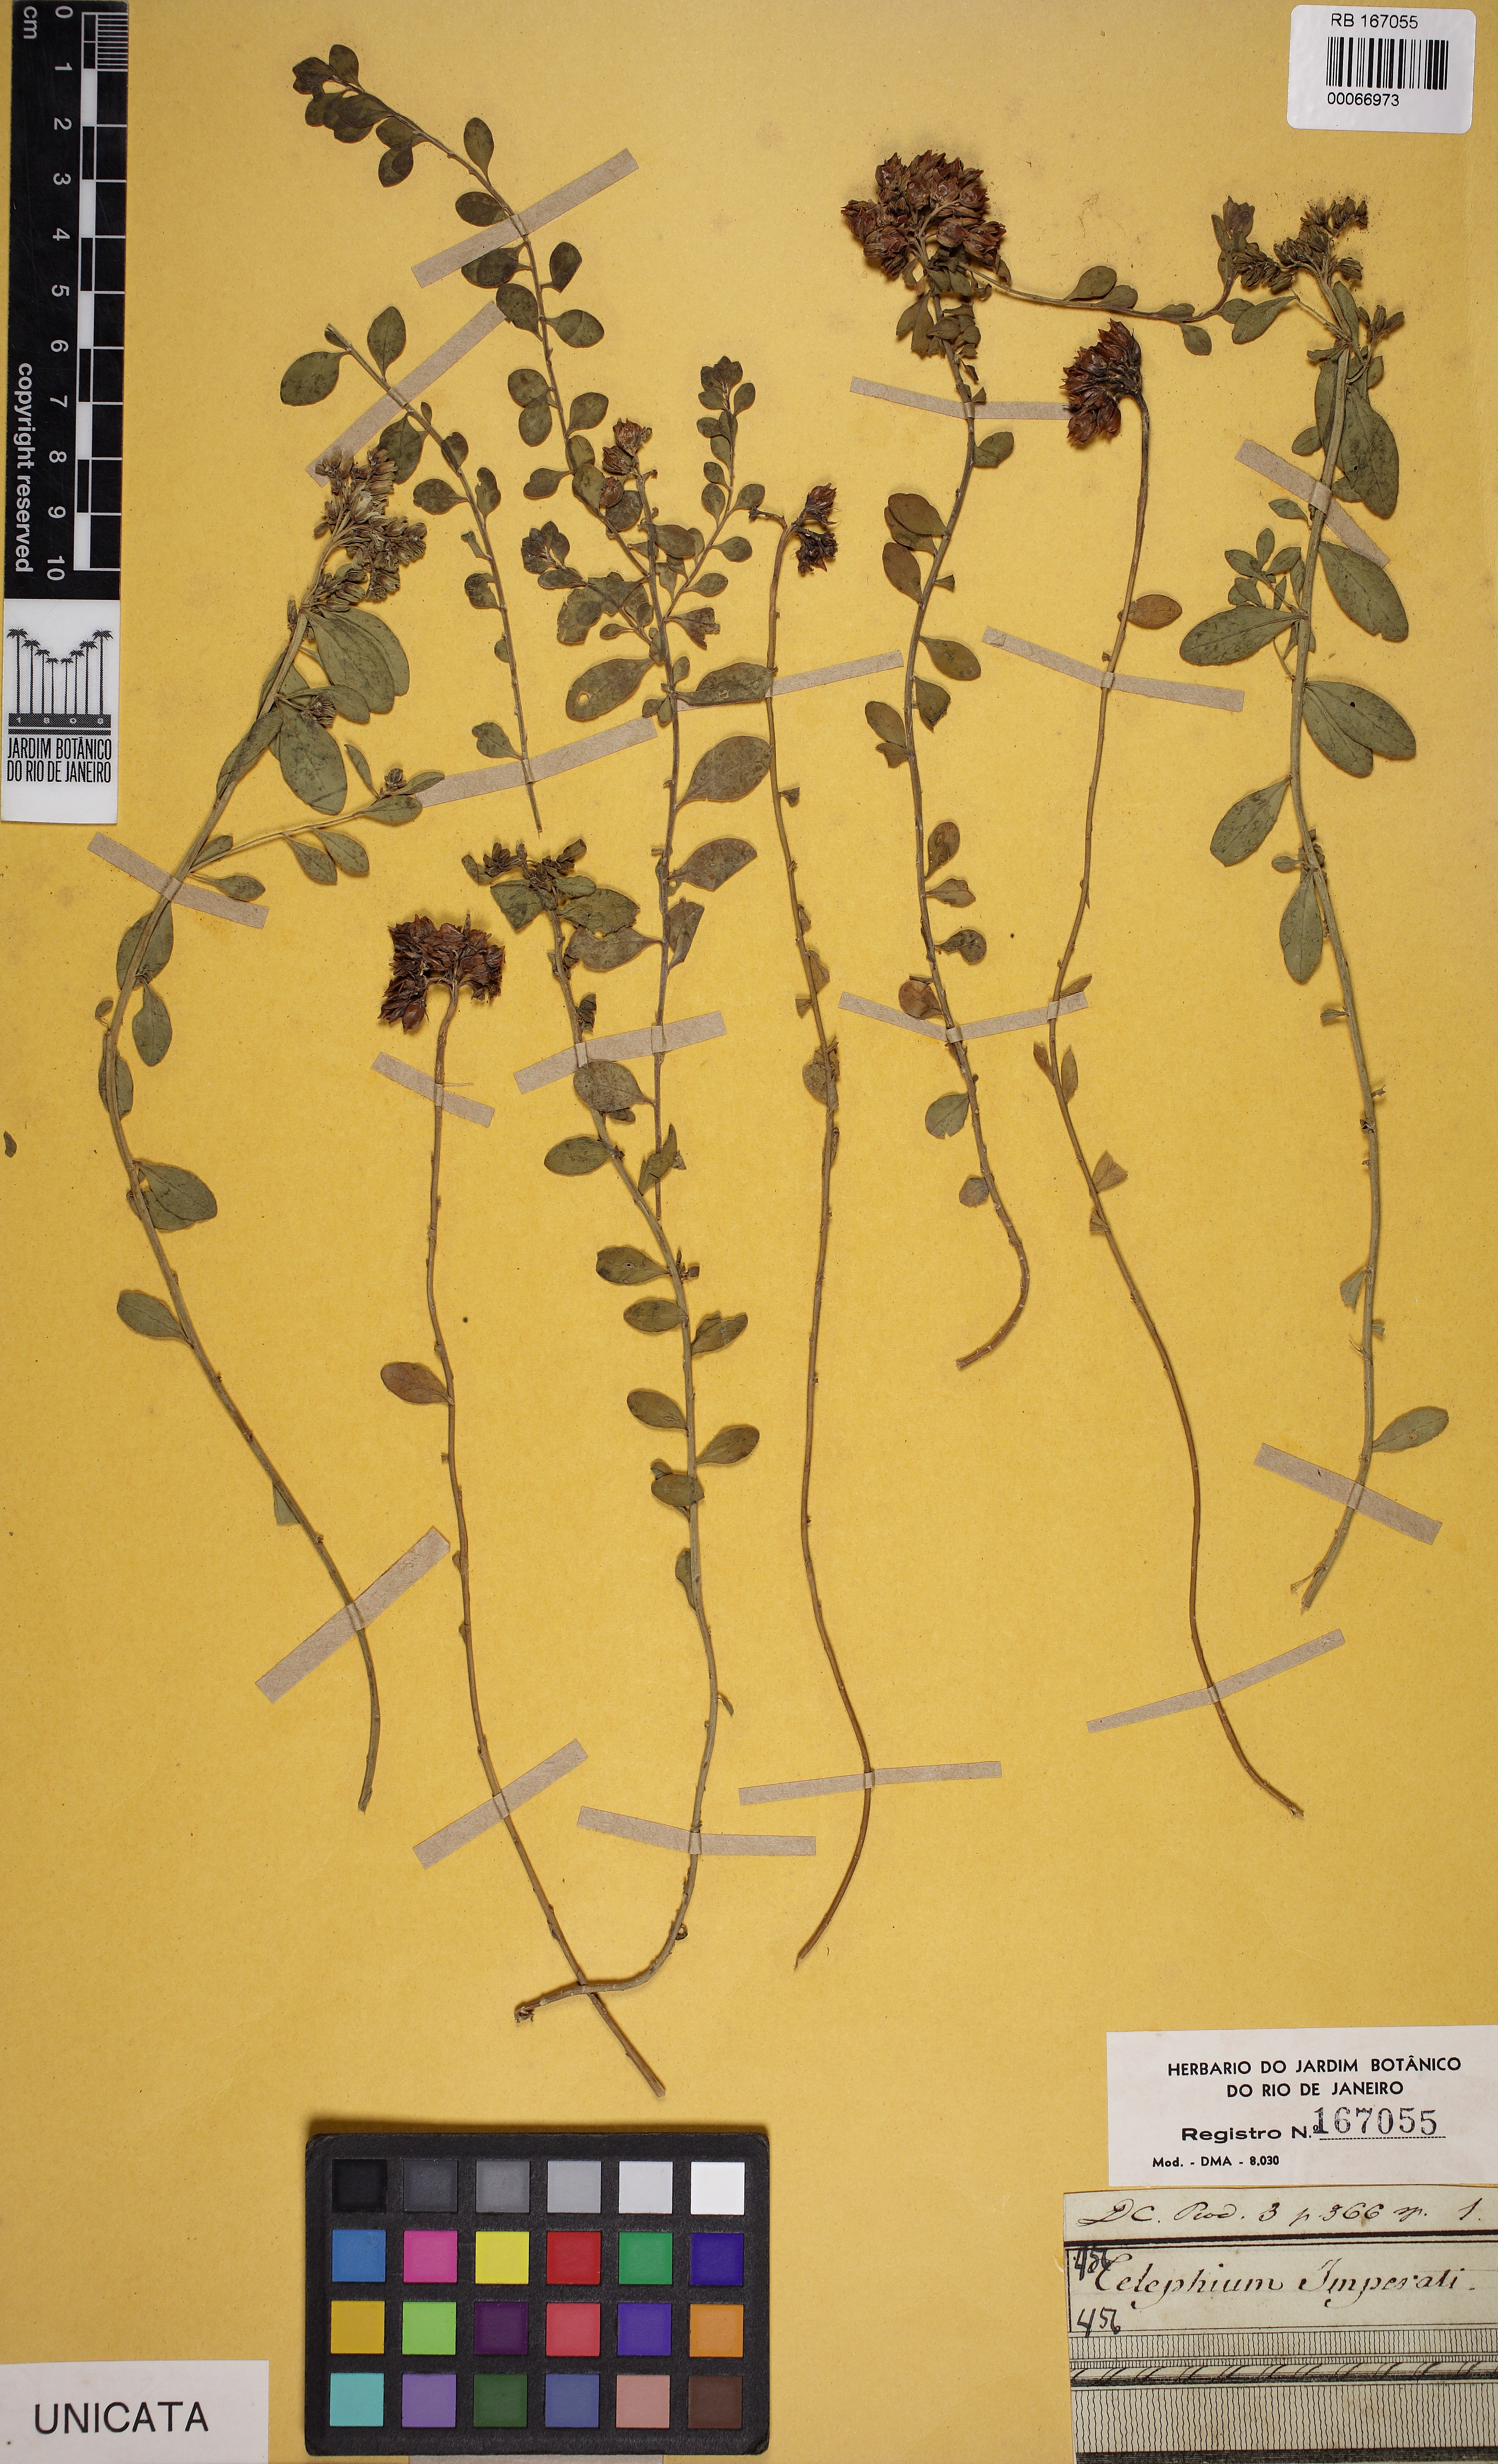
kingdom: Plantae
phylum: Tracheophyta
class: Magnoliopsida
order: Caryophyllales
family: Caryophyllaceae
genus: Telephium
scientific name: Telephium imperati
